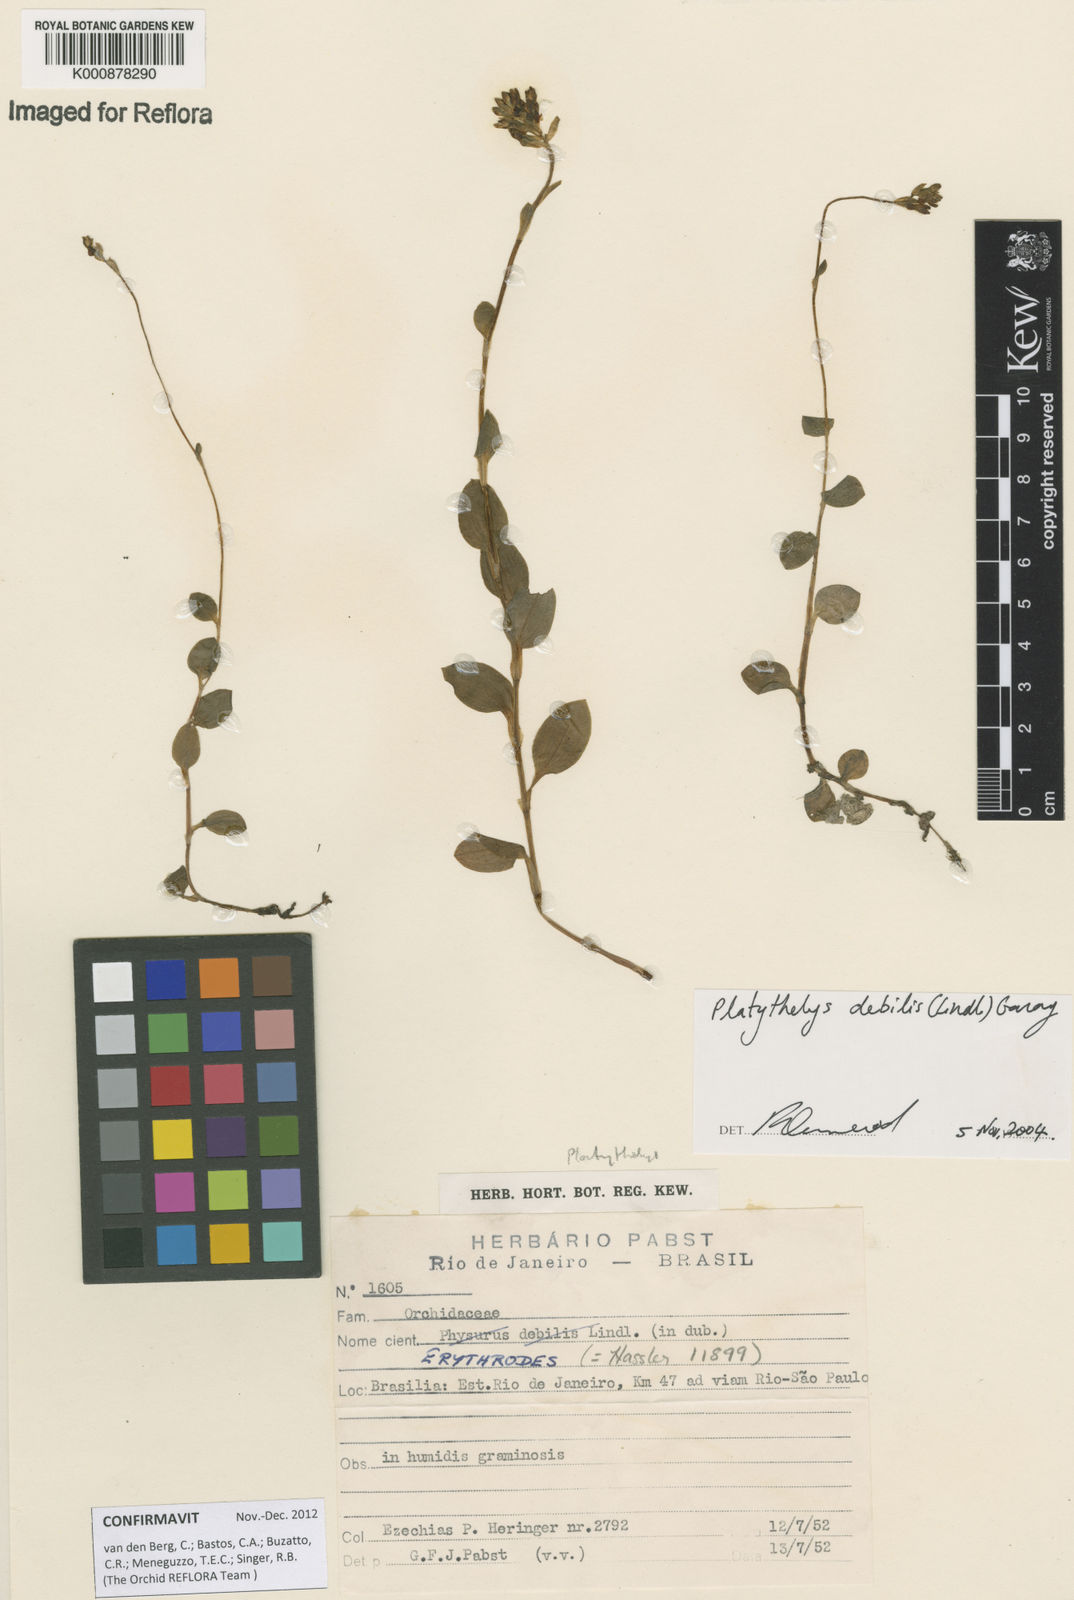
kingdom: Plantae
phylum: Tracheophyta
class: Liliopsida
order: Asparagales
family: Orchidaceae
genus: Aspidogyne
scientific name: Aspidogyne debilis
